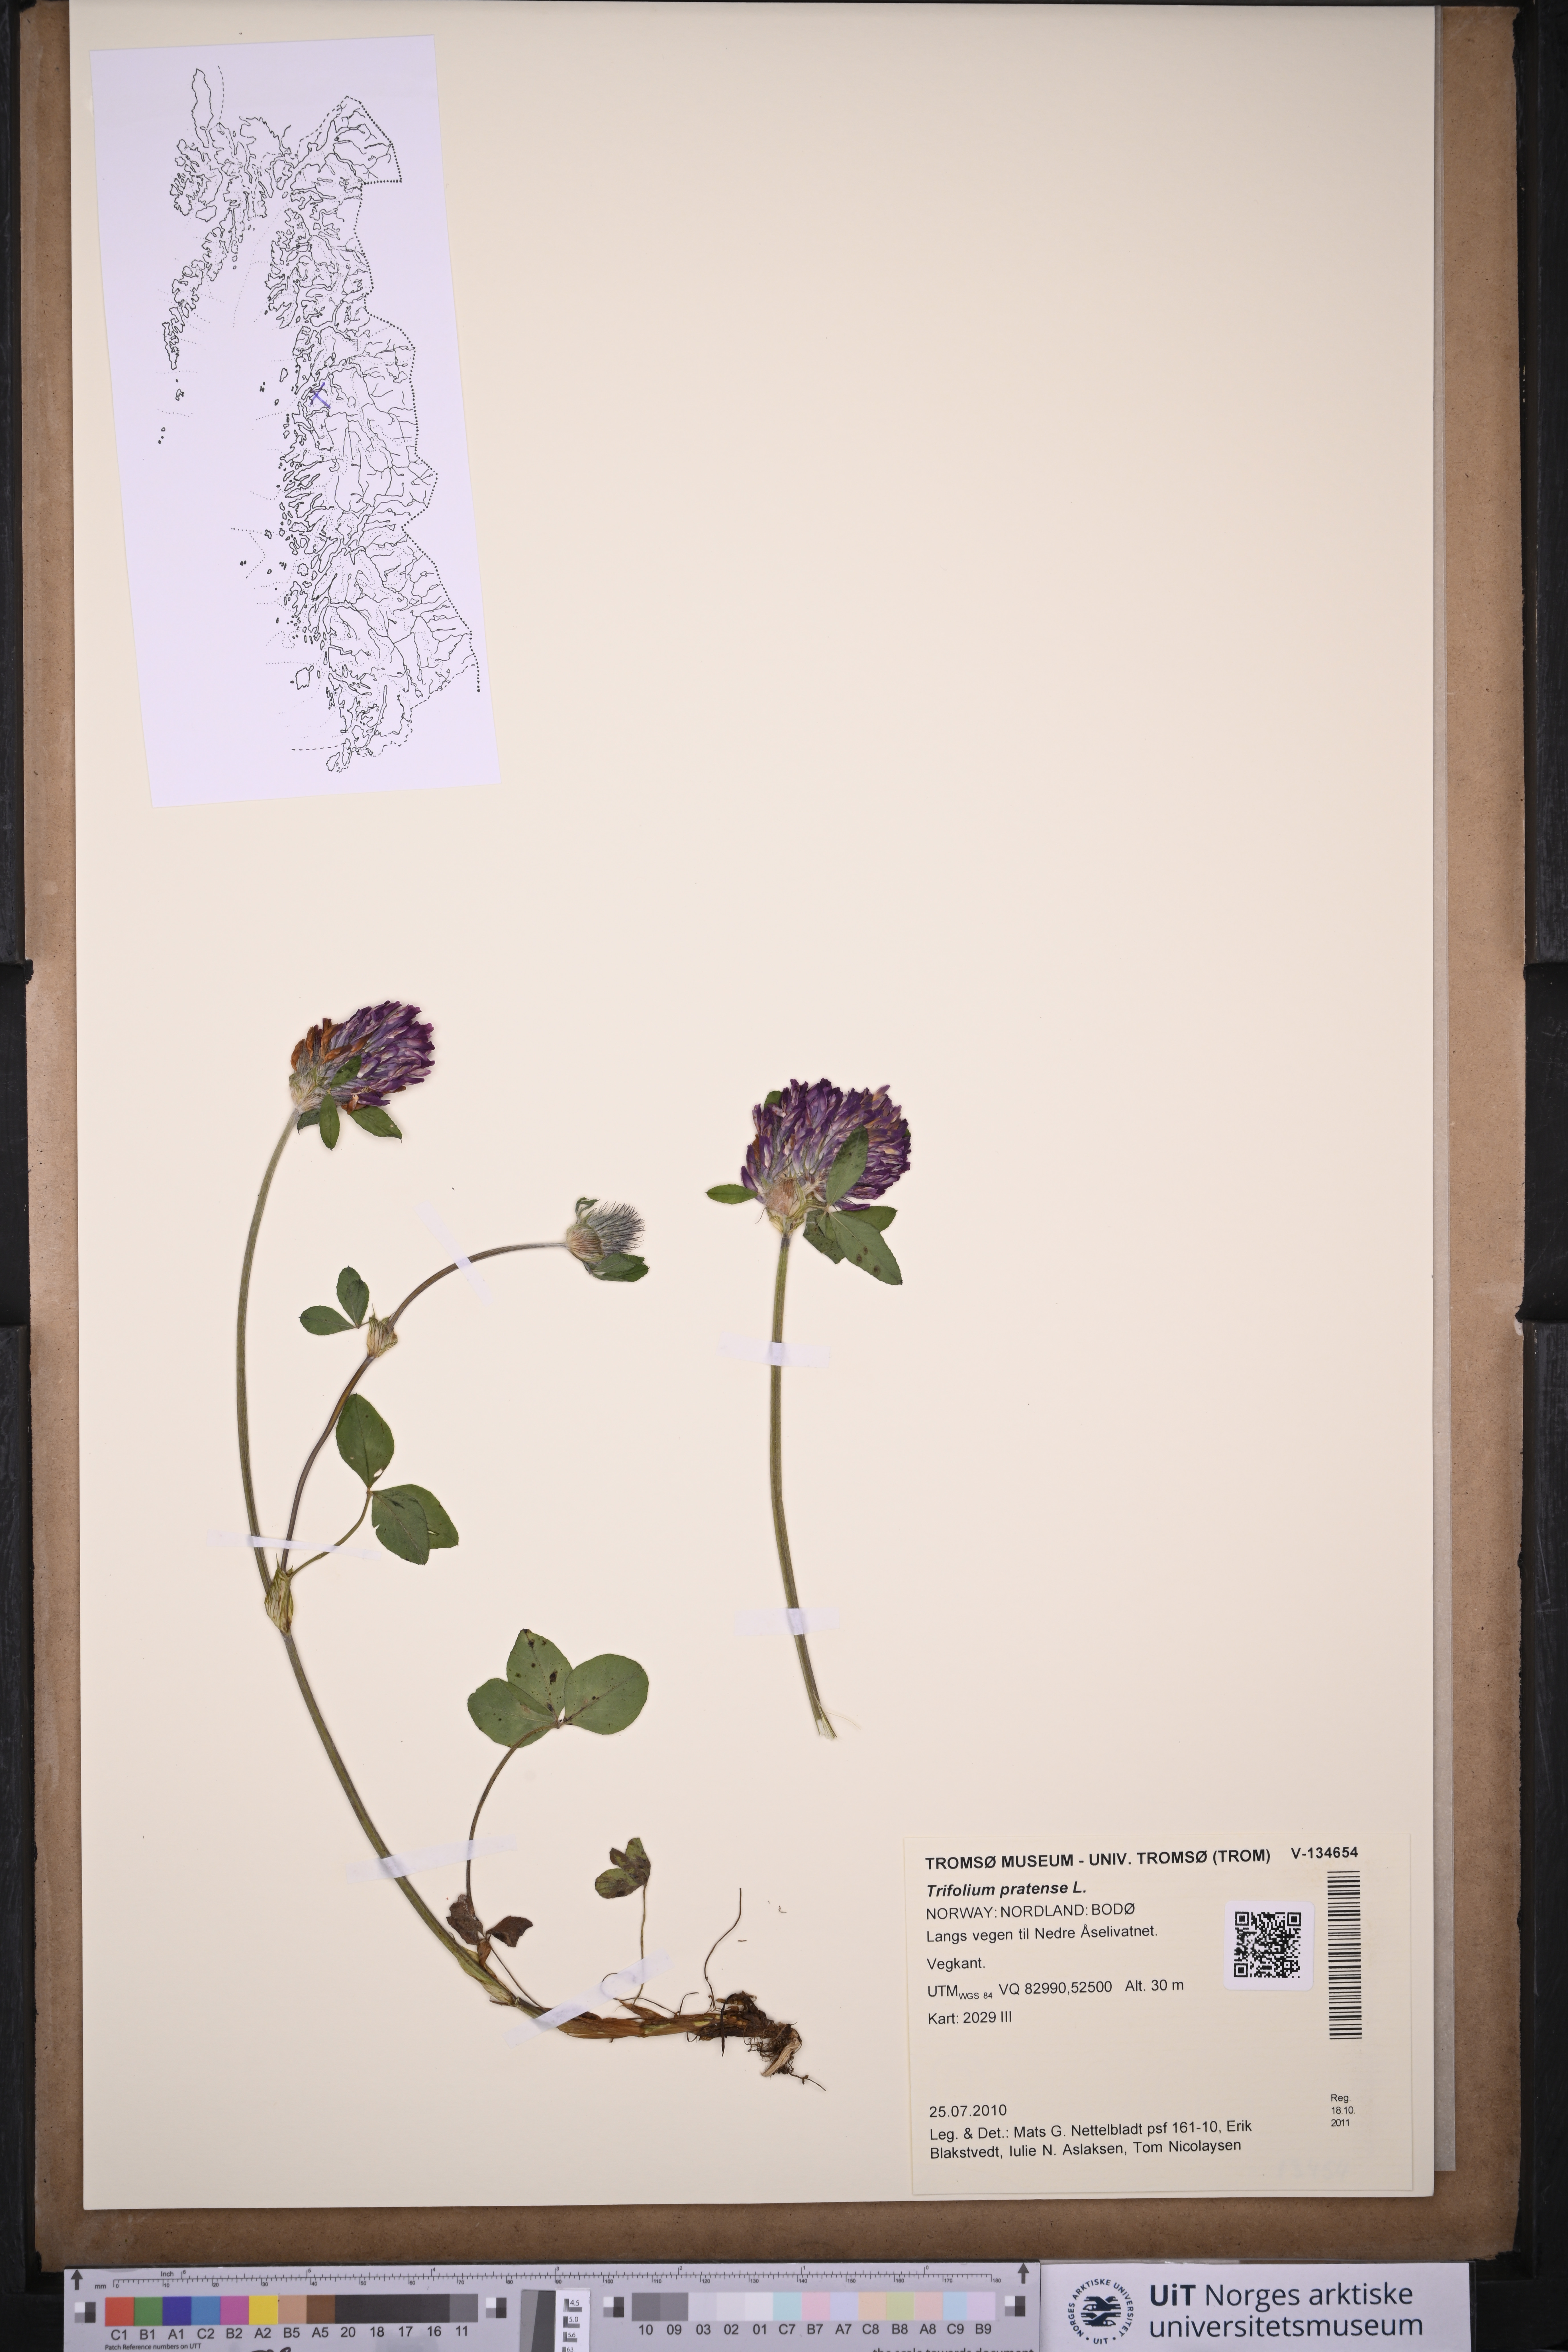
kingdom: Plantae
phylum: Tracheophyta
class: Magnoliopsida
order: Fabales
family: Fabaceae
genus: Trifolium
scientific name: Trifolium pratense
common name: Red clover
